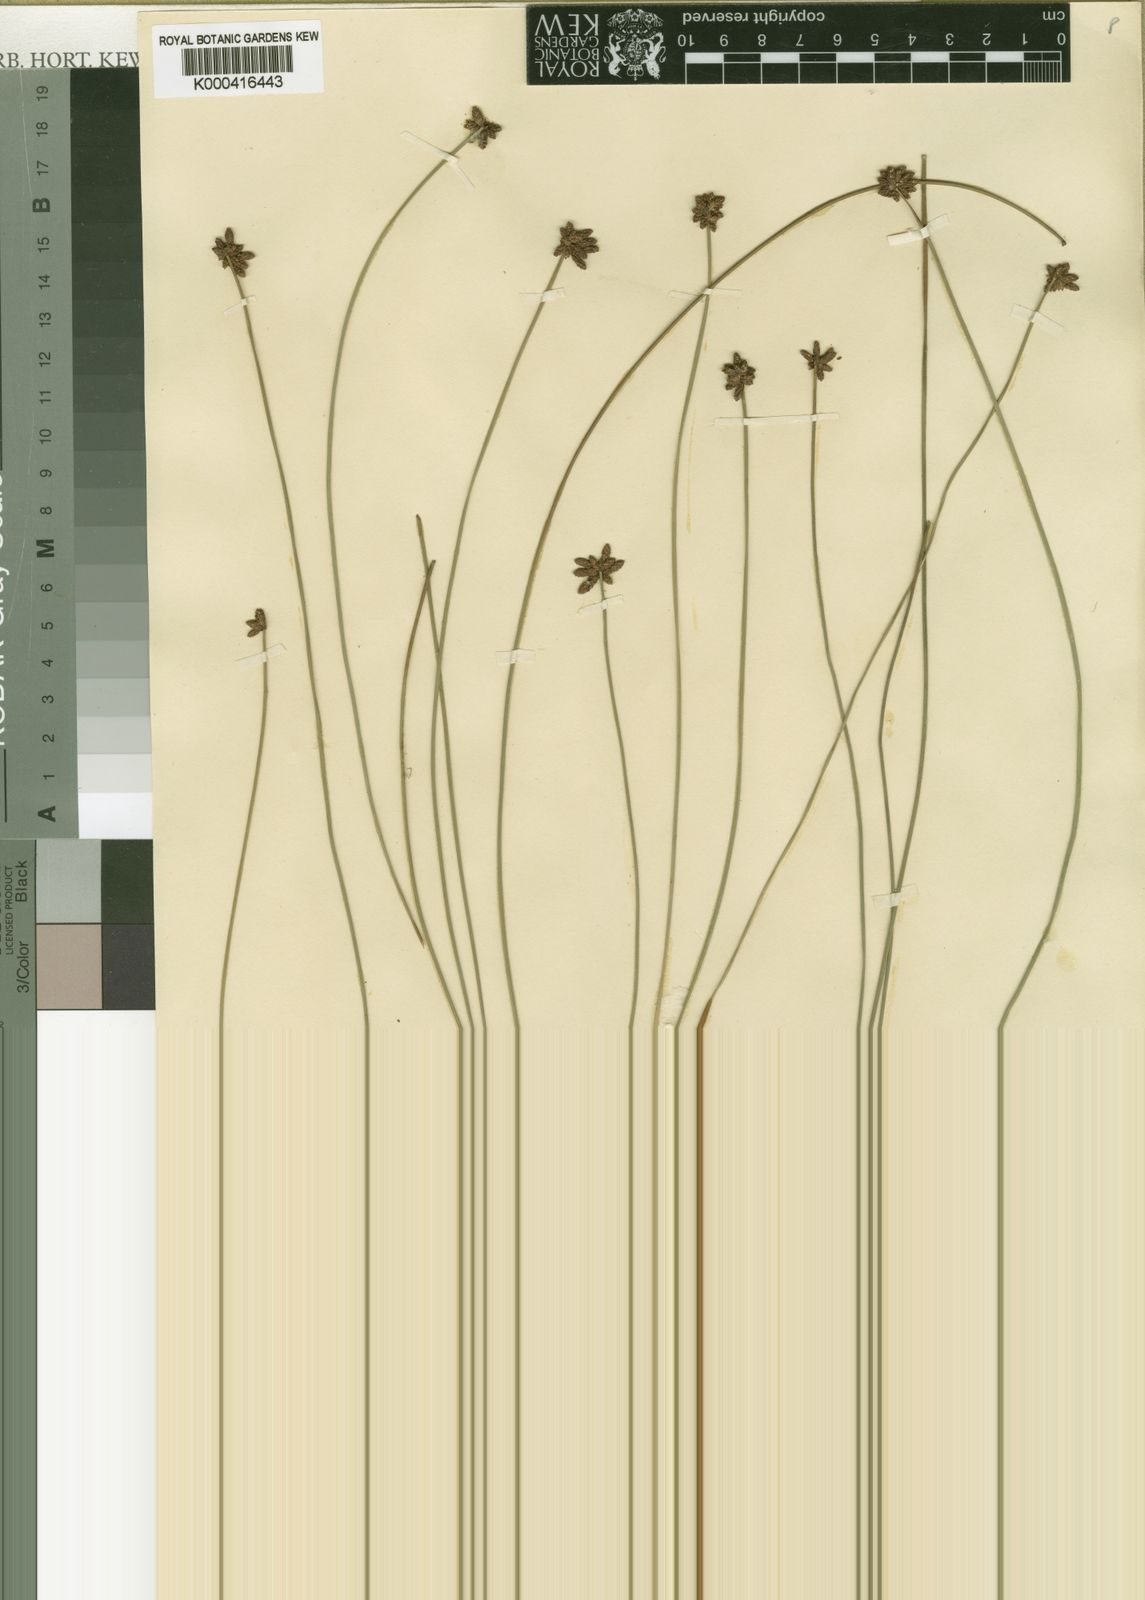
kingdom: Plantae
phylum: Tracheophyta
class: Liliopsida
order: Poales
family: Cyperaceae
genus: Ficinia
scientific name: Ficinia repens
